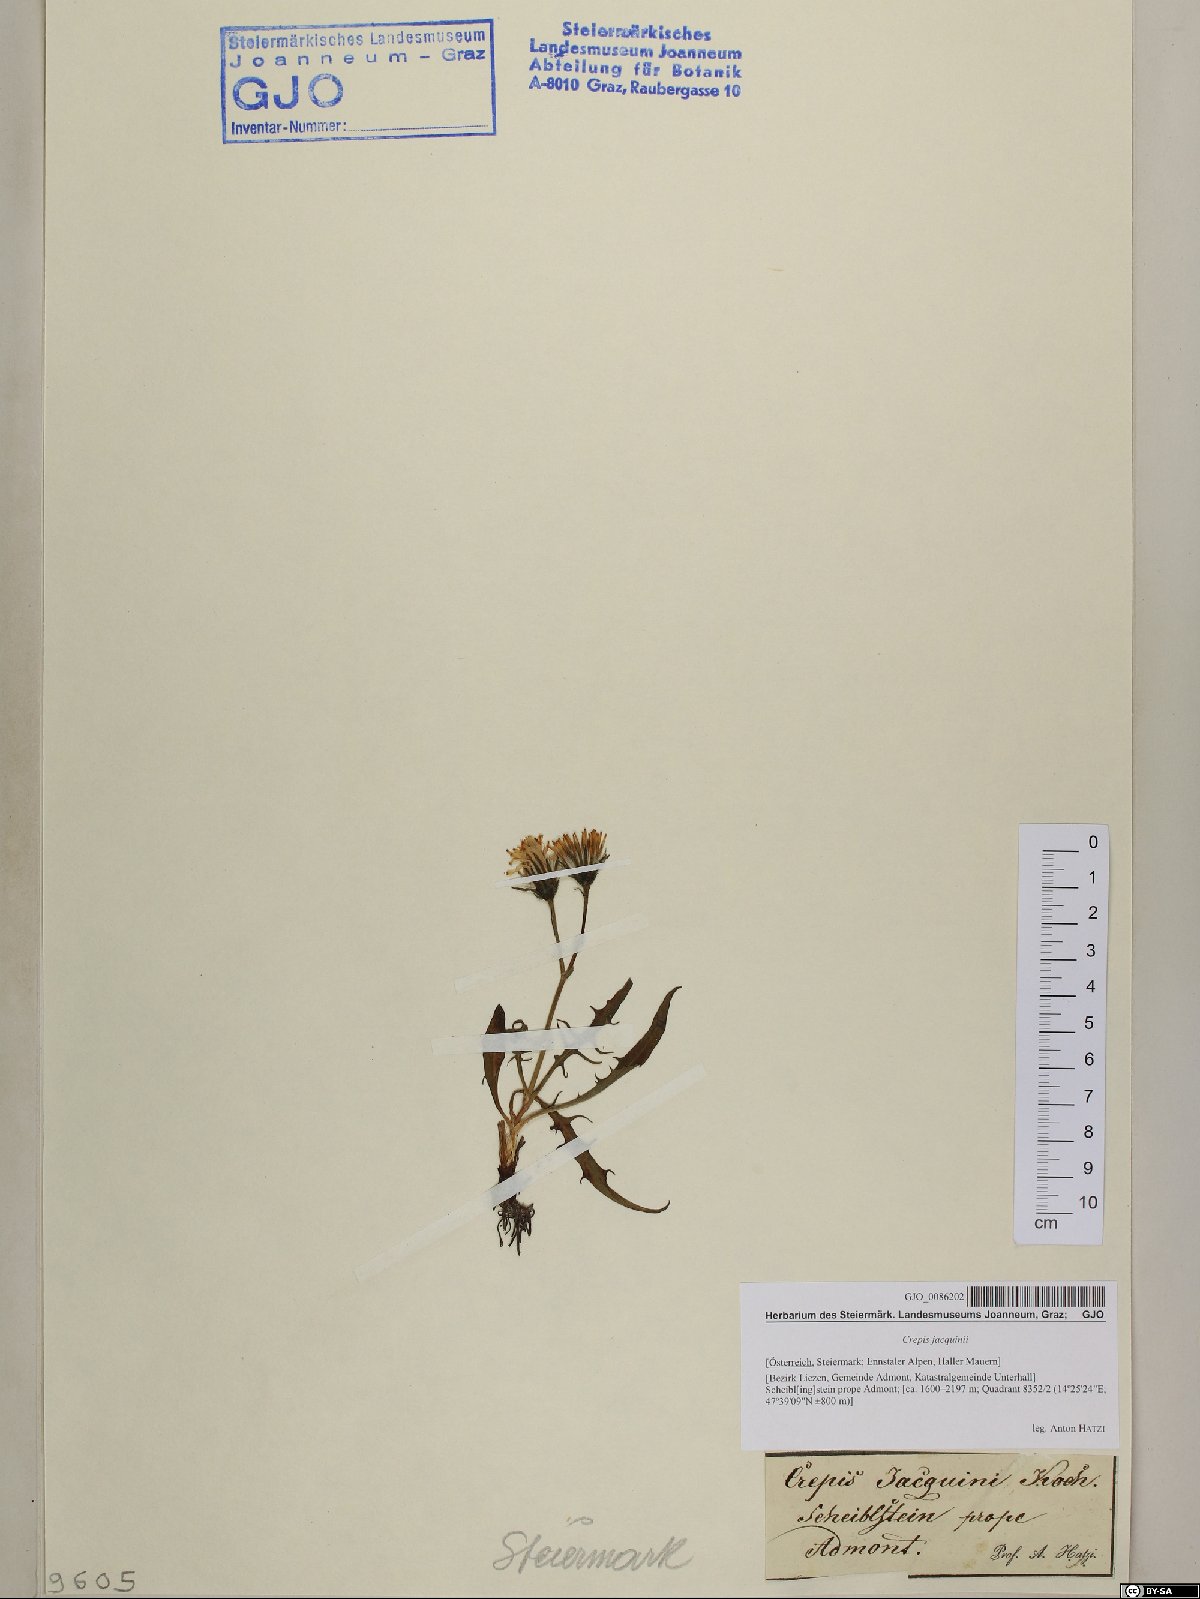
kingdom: Plantae
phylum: Tracheophyta
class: Magnoliopsida
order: Asterales
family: Asteraceae
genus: Crepis
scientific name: Crepis jacquinii
